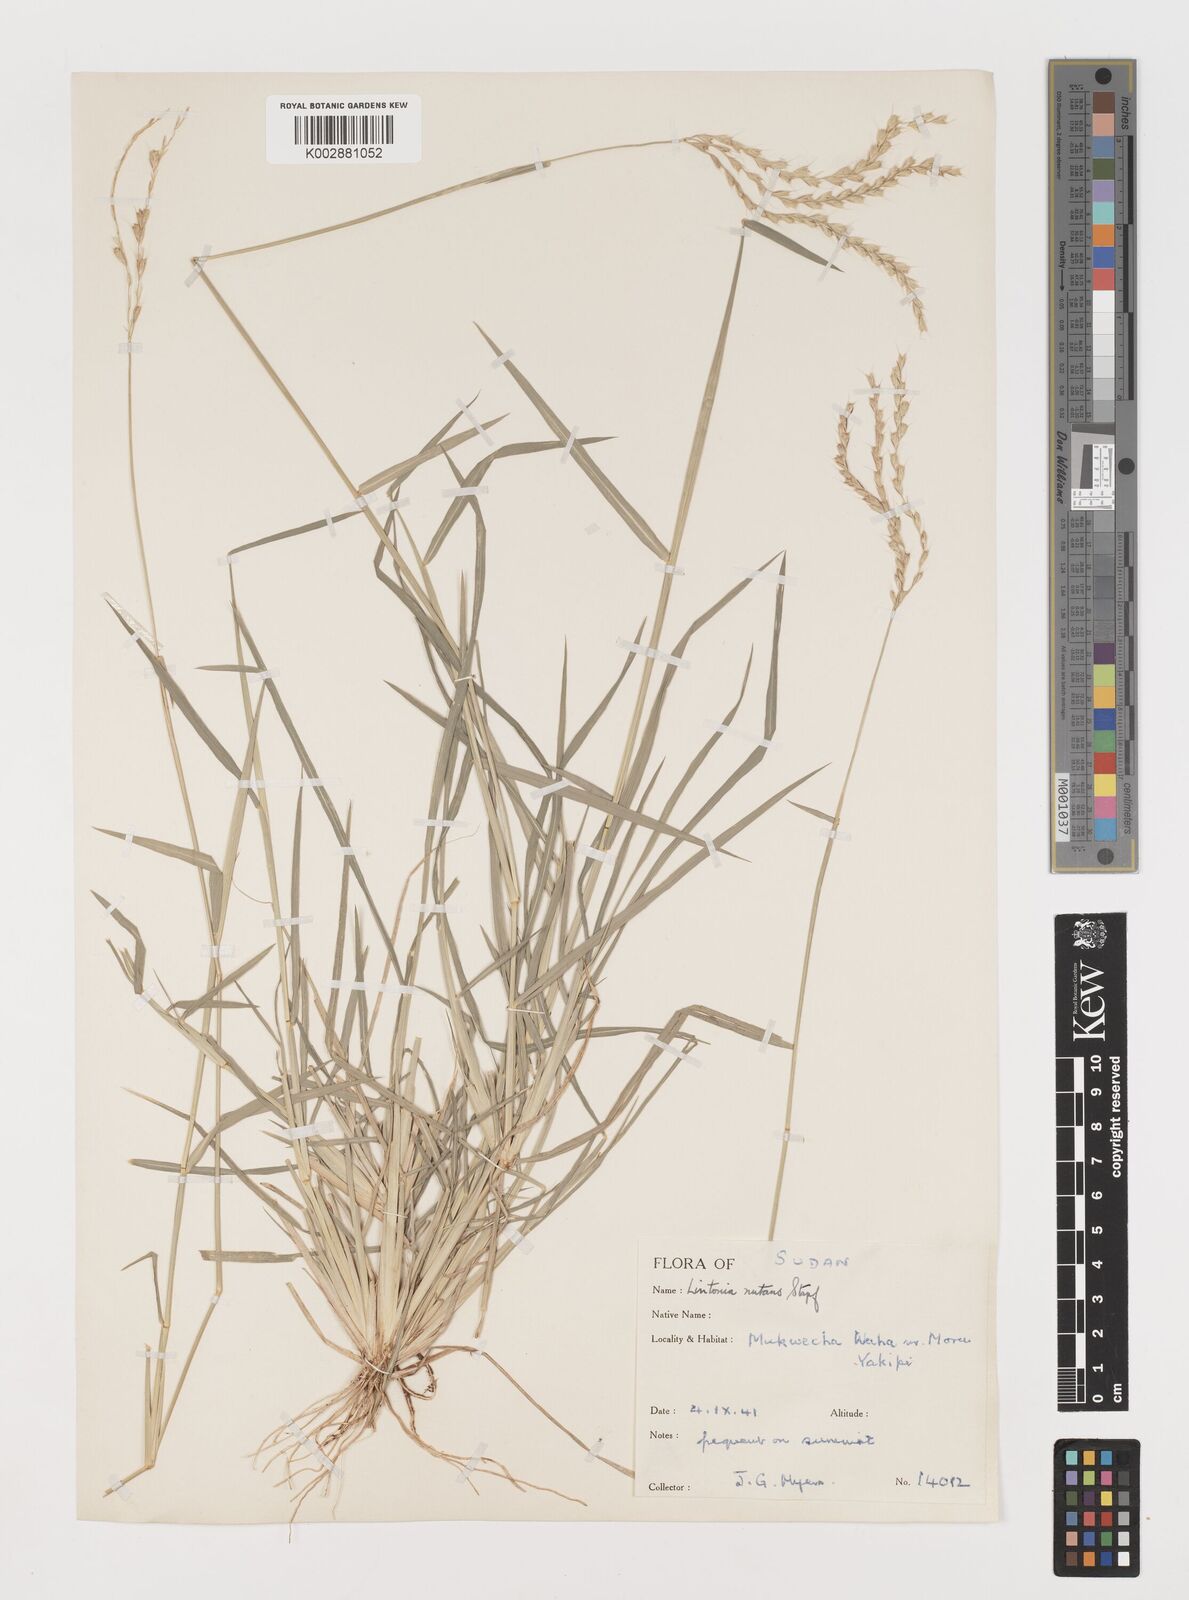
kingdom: Plantae
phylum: Tracheophyta
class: Liliopsida
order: Poales
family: Poaceae
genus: Chloris
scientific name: Chloris nutans
